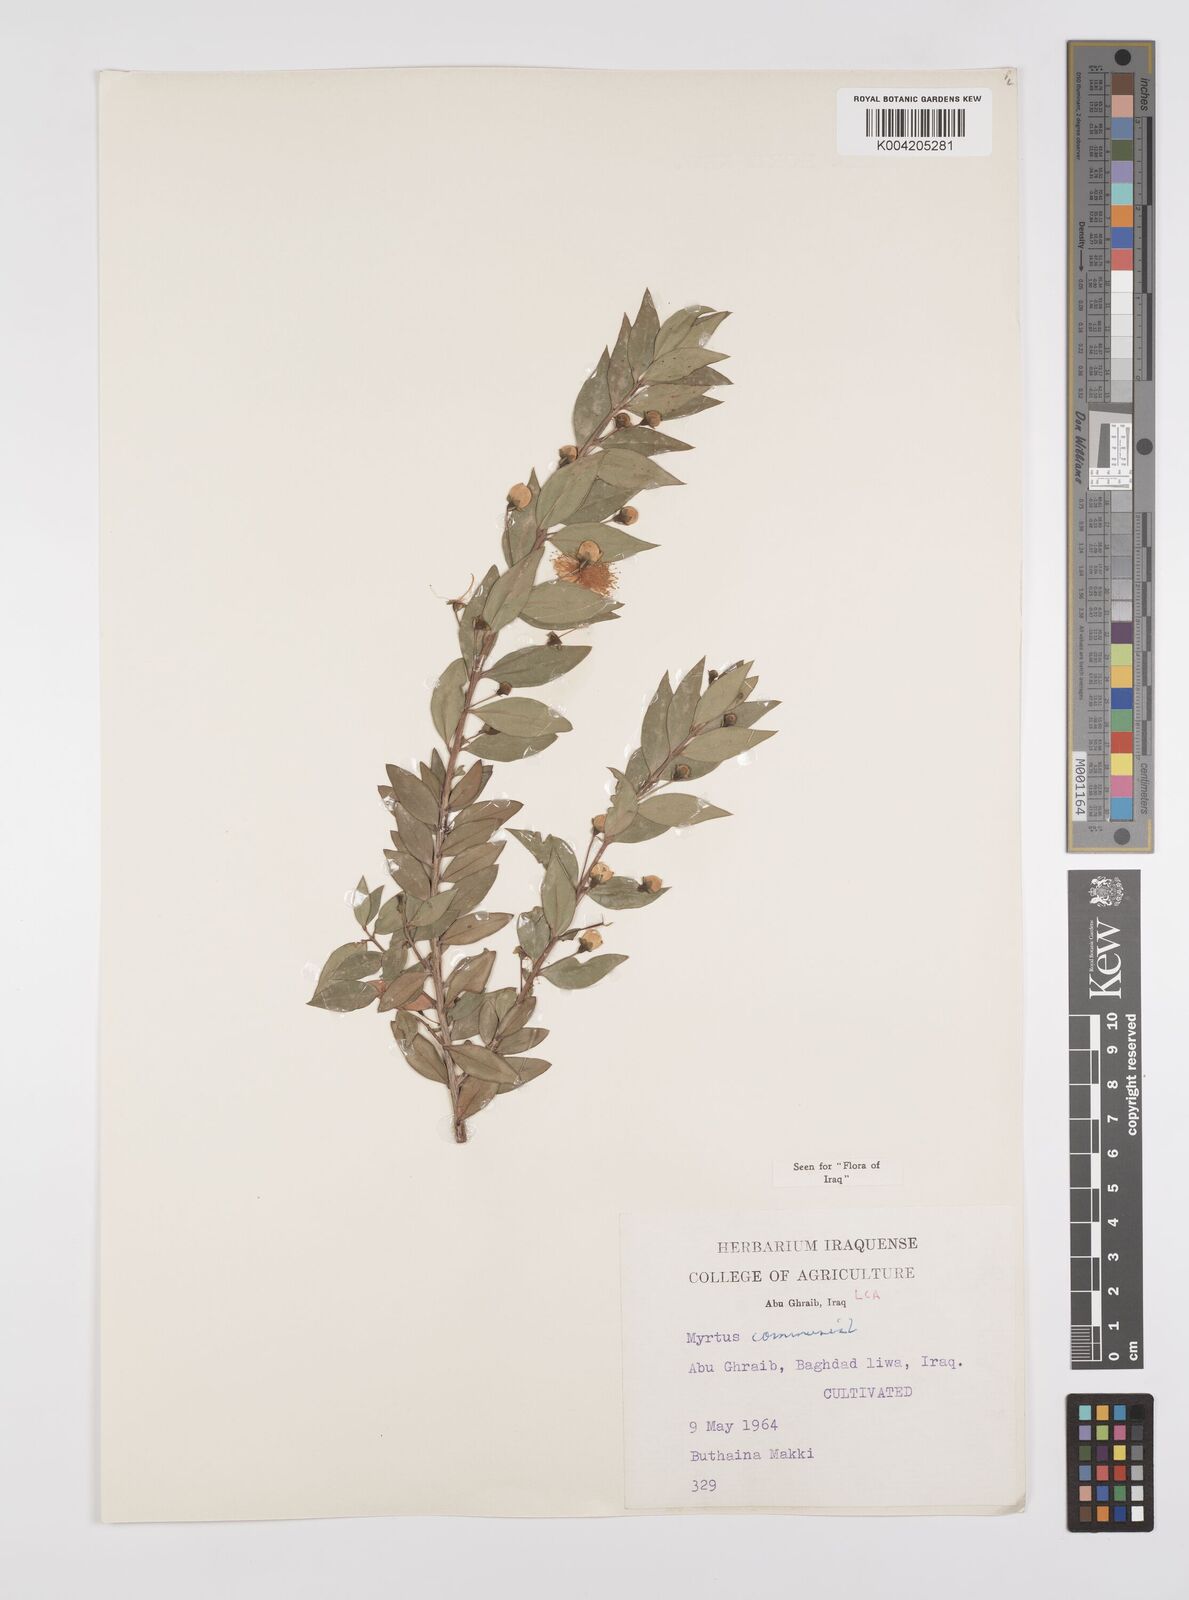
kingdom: Plantae
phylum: Tracheophyta
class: Magnoliopsida
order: Myrtales
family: Myrtaceae
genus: Myrtus
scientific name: Myrtus communis
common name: Myrtle
